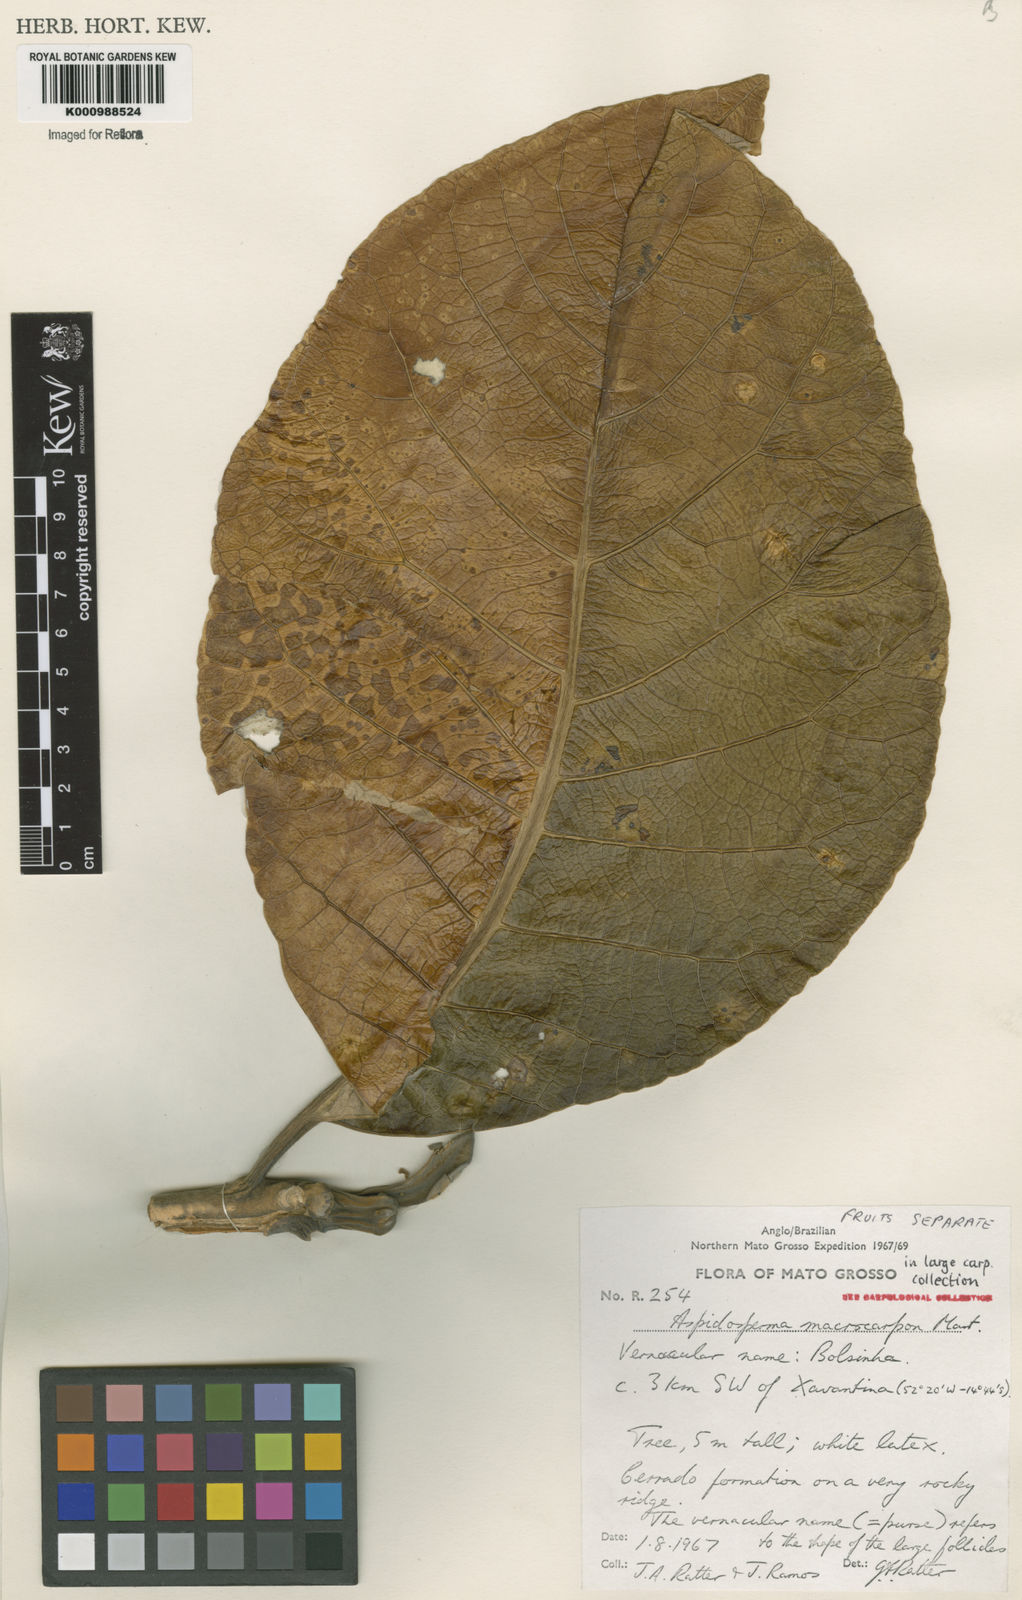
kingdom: Plantae
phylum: Tracheophyta
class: Magnoliopsida
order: Gentianales
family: Apocynaceae
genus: Aspidosperma
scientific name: Aspidosperma macrocarpon
